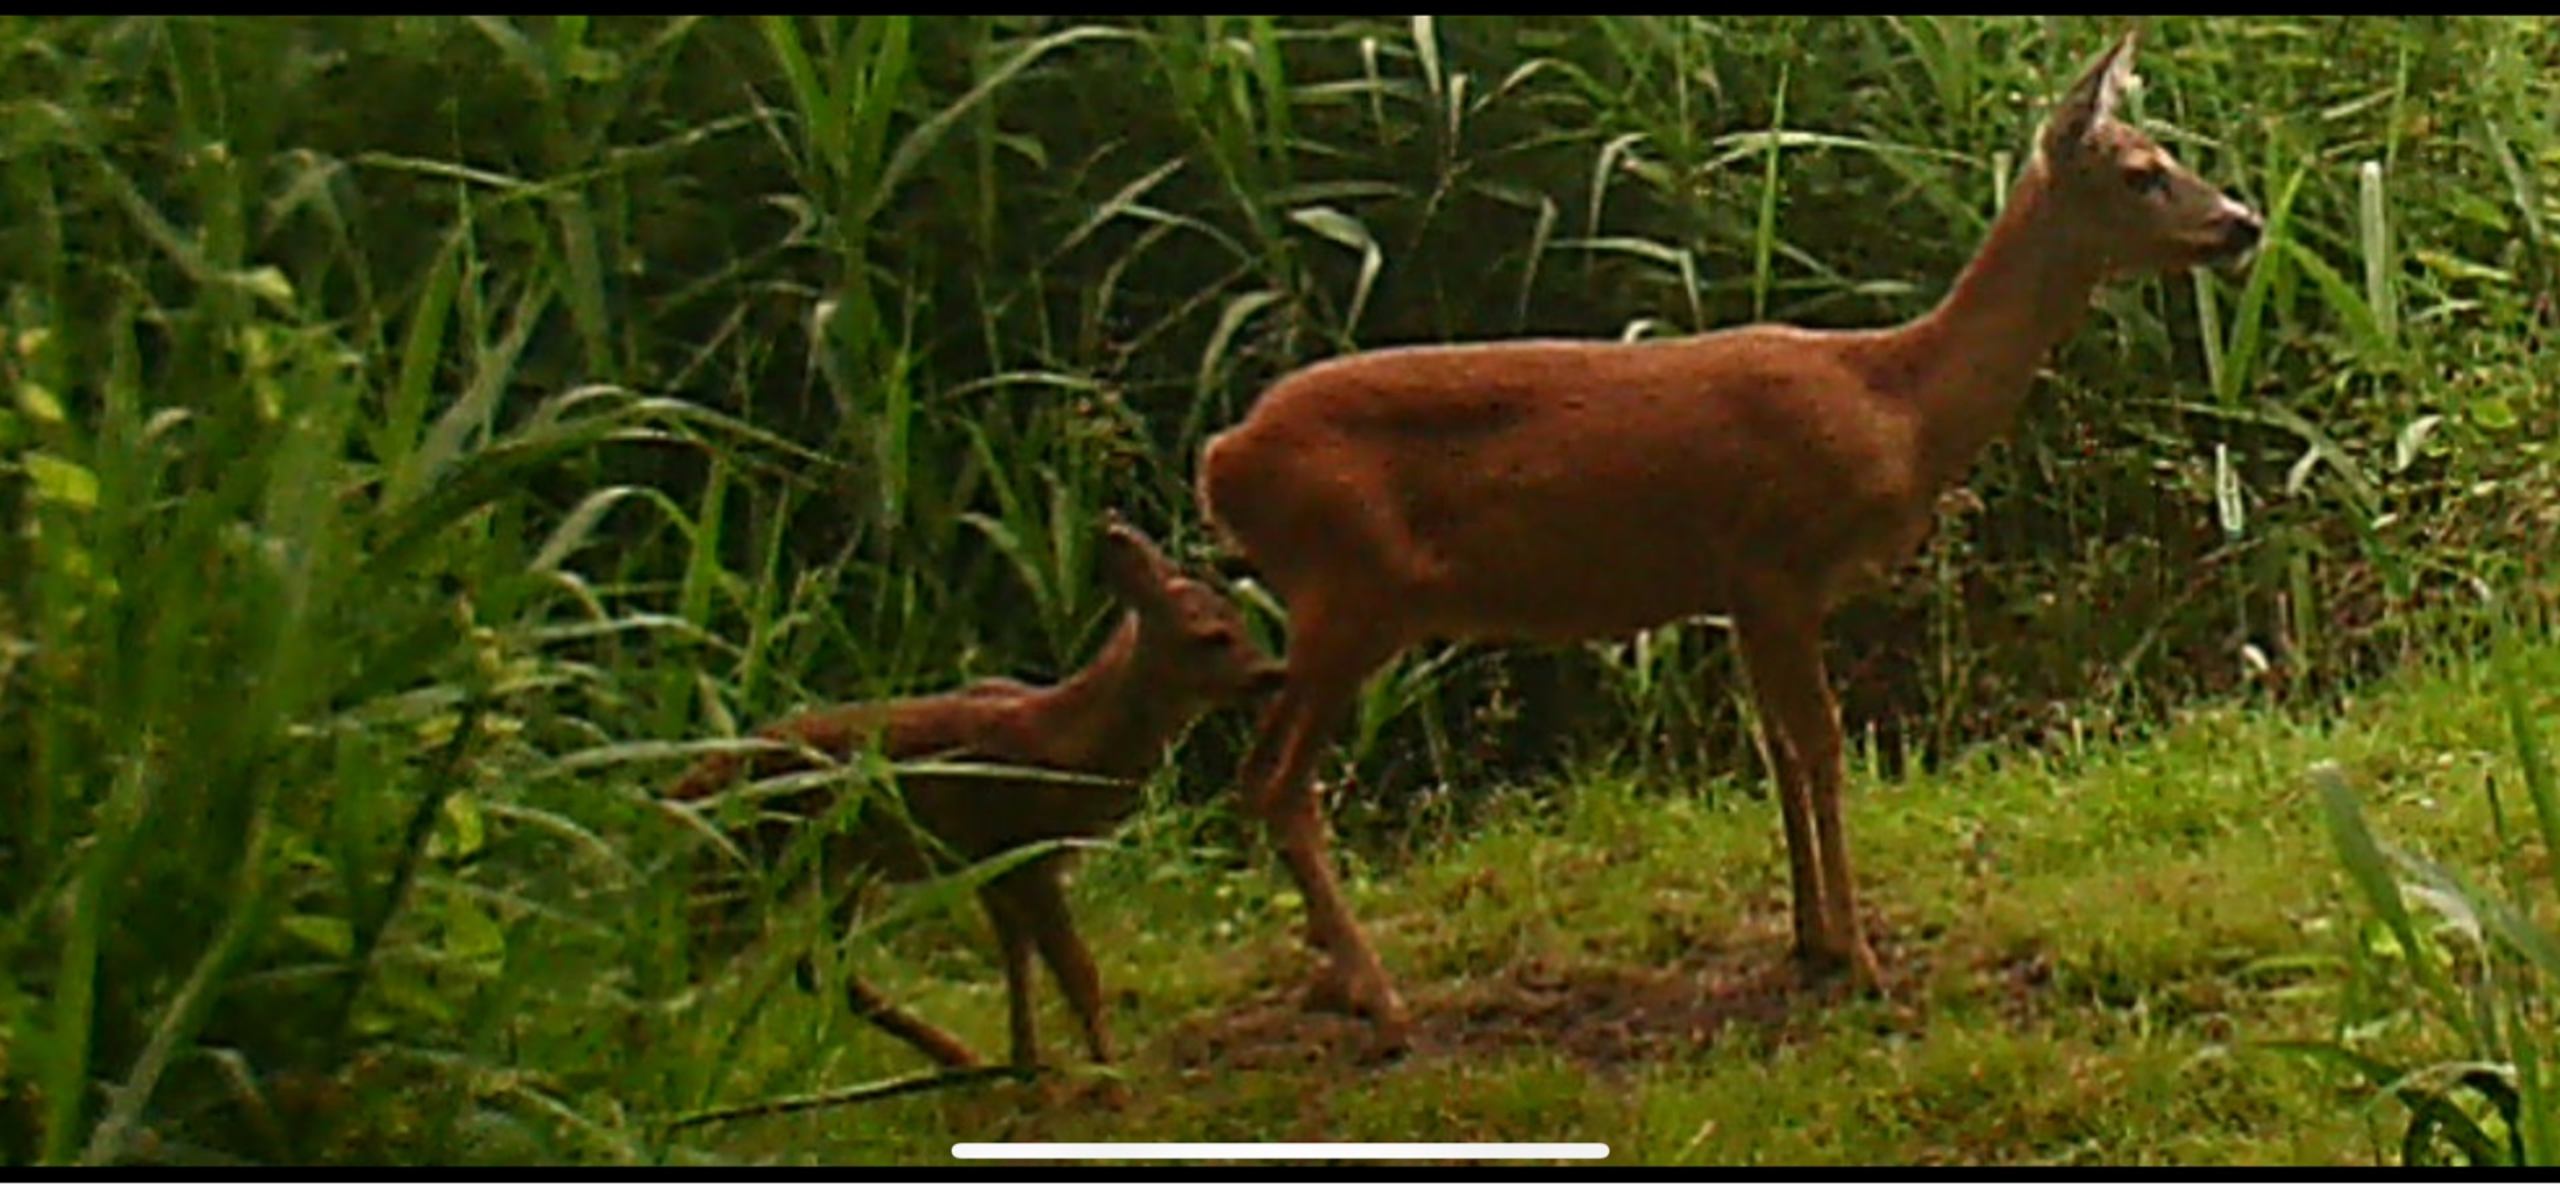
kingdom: Animalia
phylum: Chordata
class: Mammalia
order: Artiodactyla
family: Cervidae
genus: Capreolus
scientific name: Capreolus capreolus
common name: Rådyr
